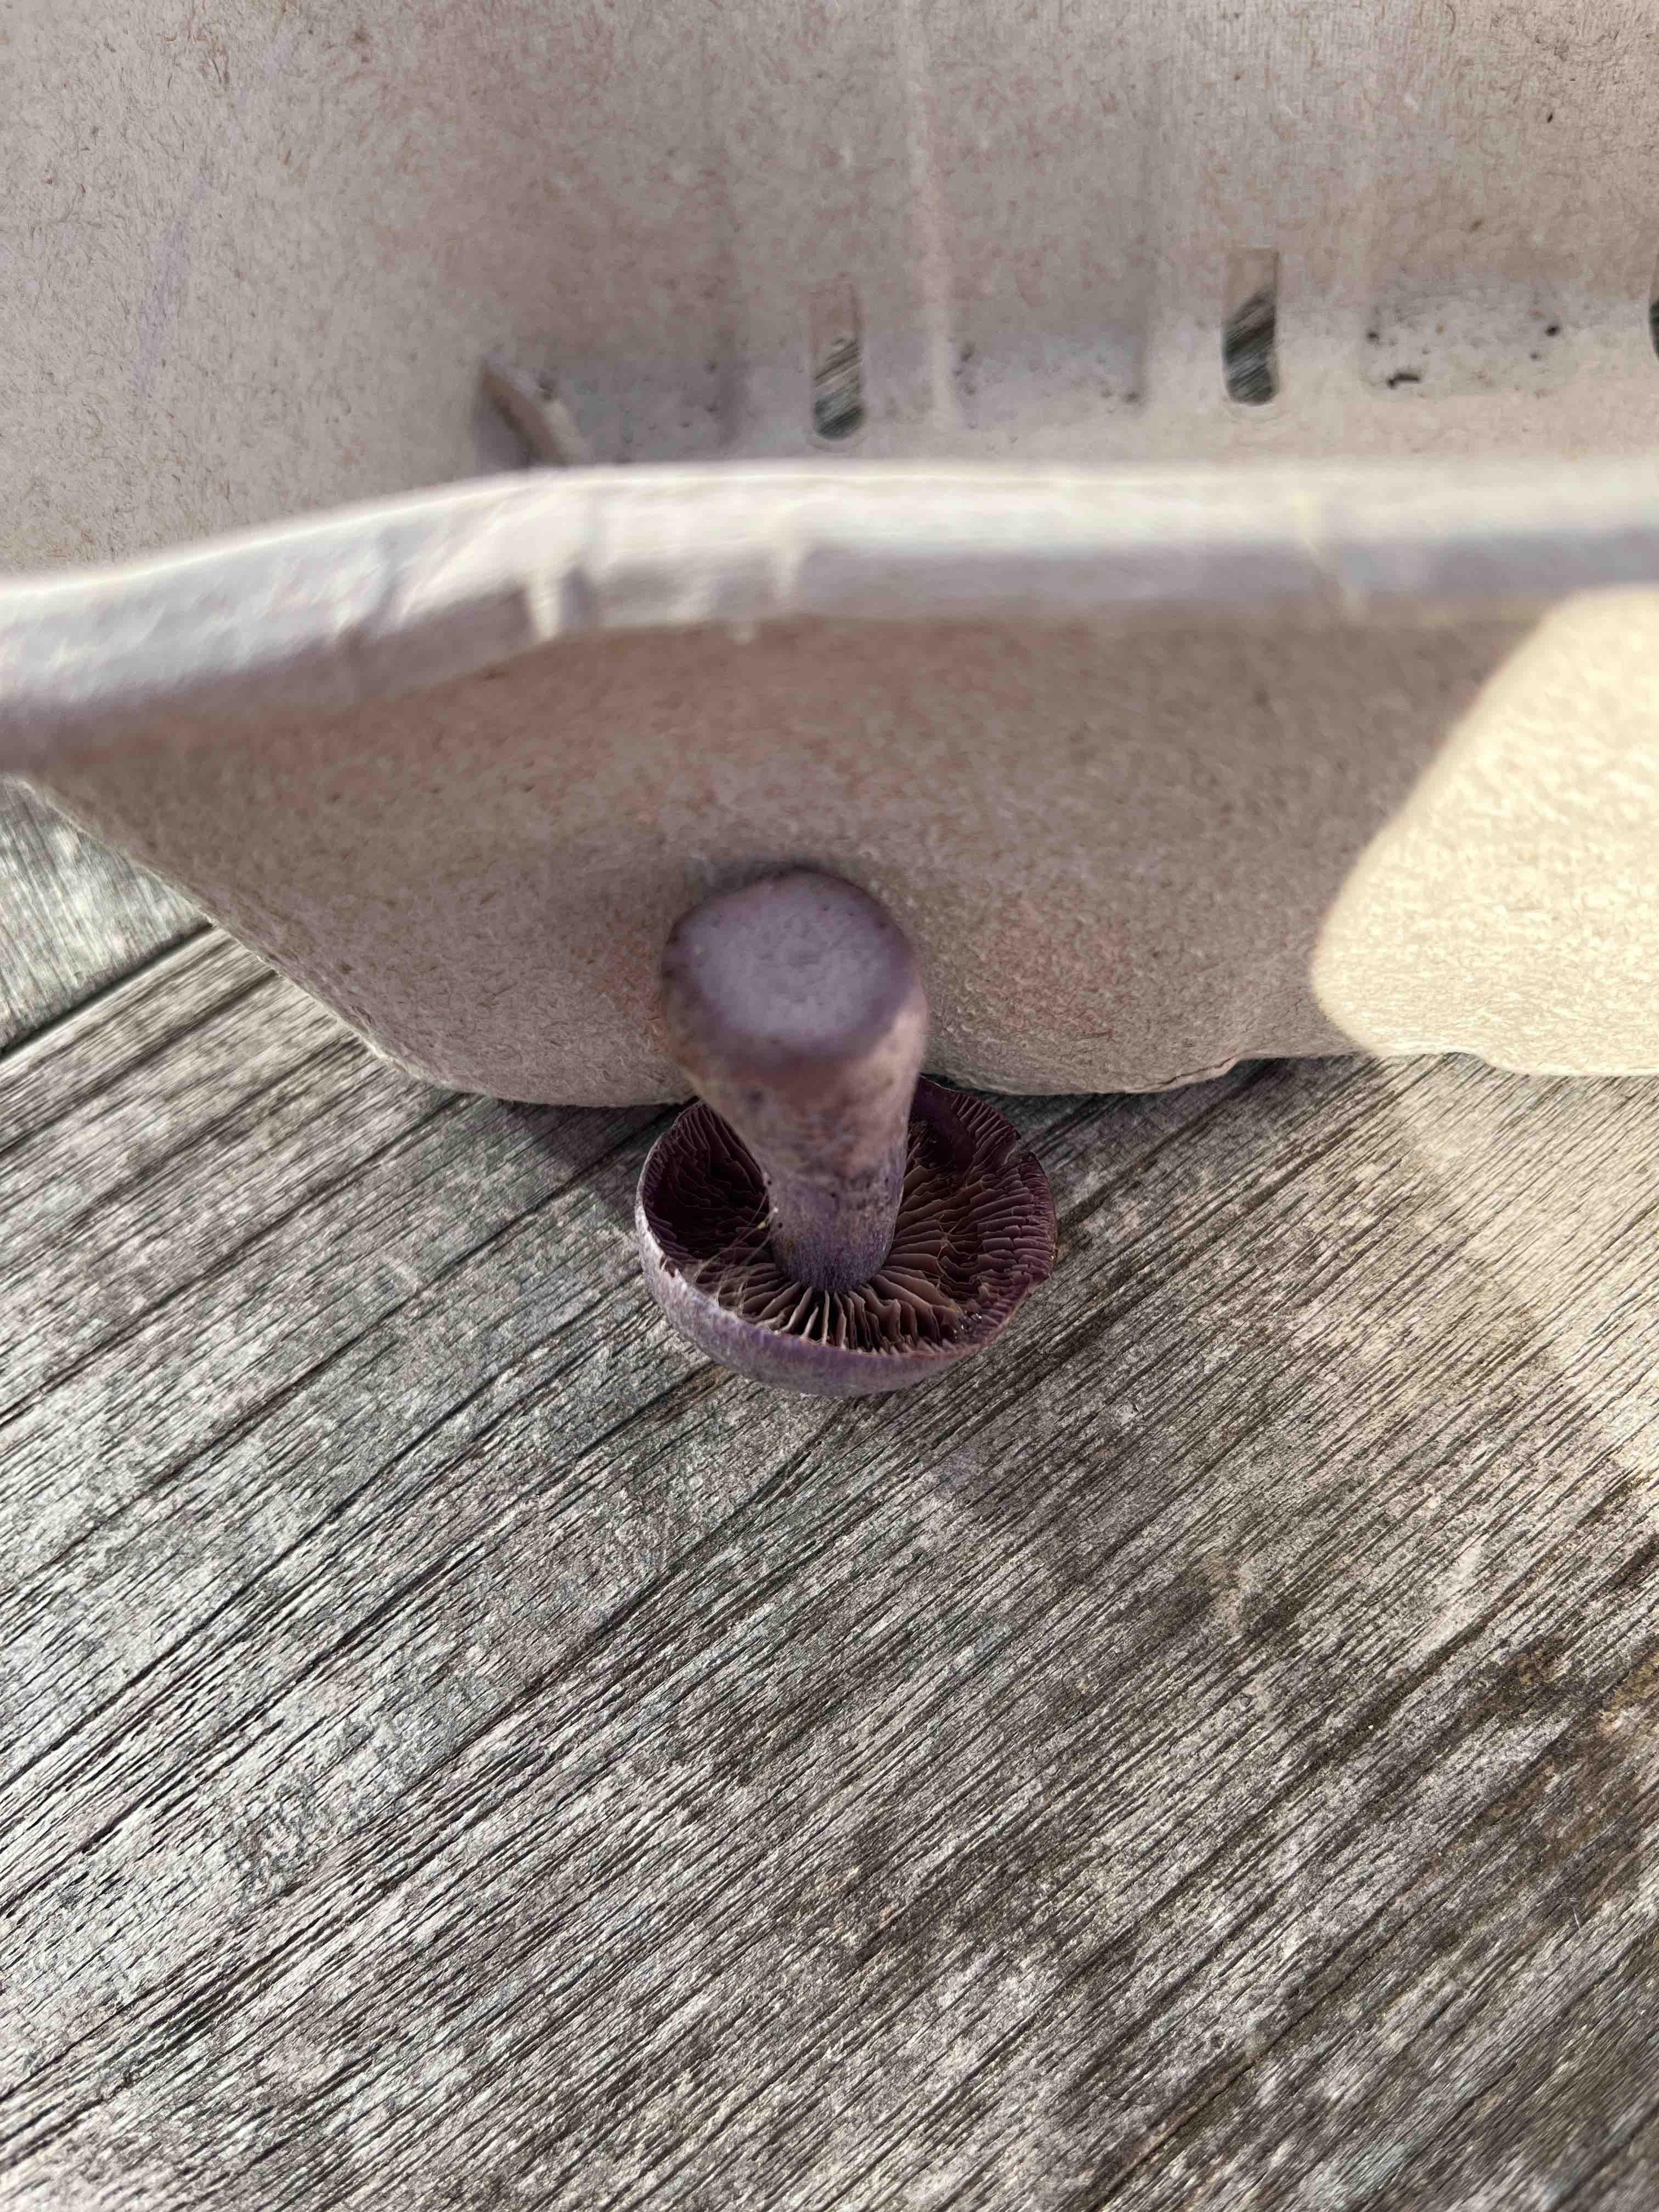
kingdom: Fungi
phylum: Basidiomycota
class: Agaricomycetes
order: Agaricales
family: Cortinariaceae
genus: Cortinarius
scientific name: Cortinarius
